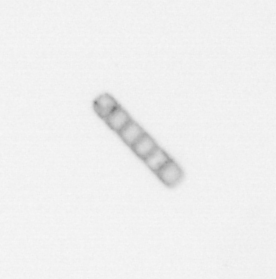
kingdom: Chromista
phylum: Ochrophyta
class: Bacillariophyceae
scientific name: Bacillariophyceae
